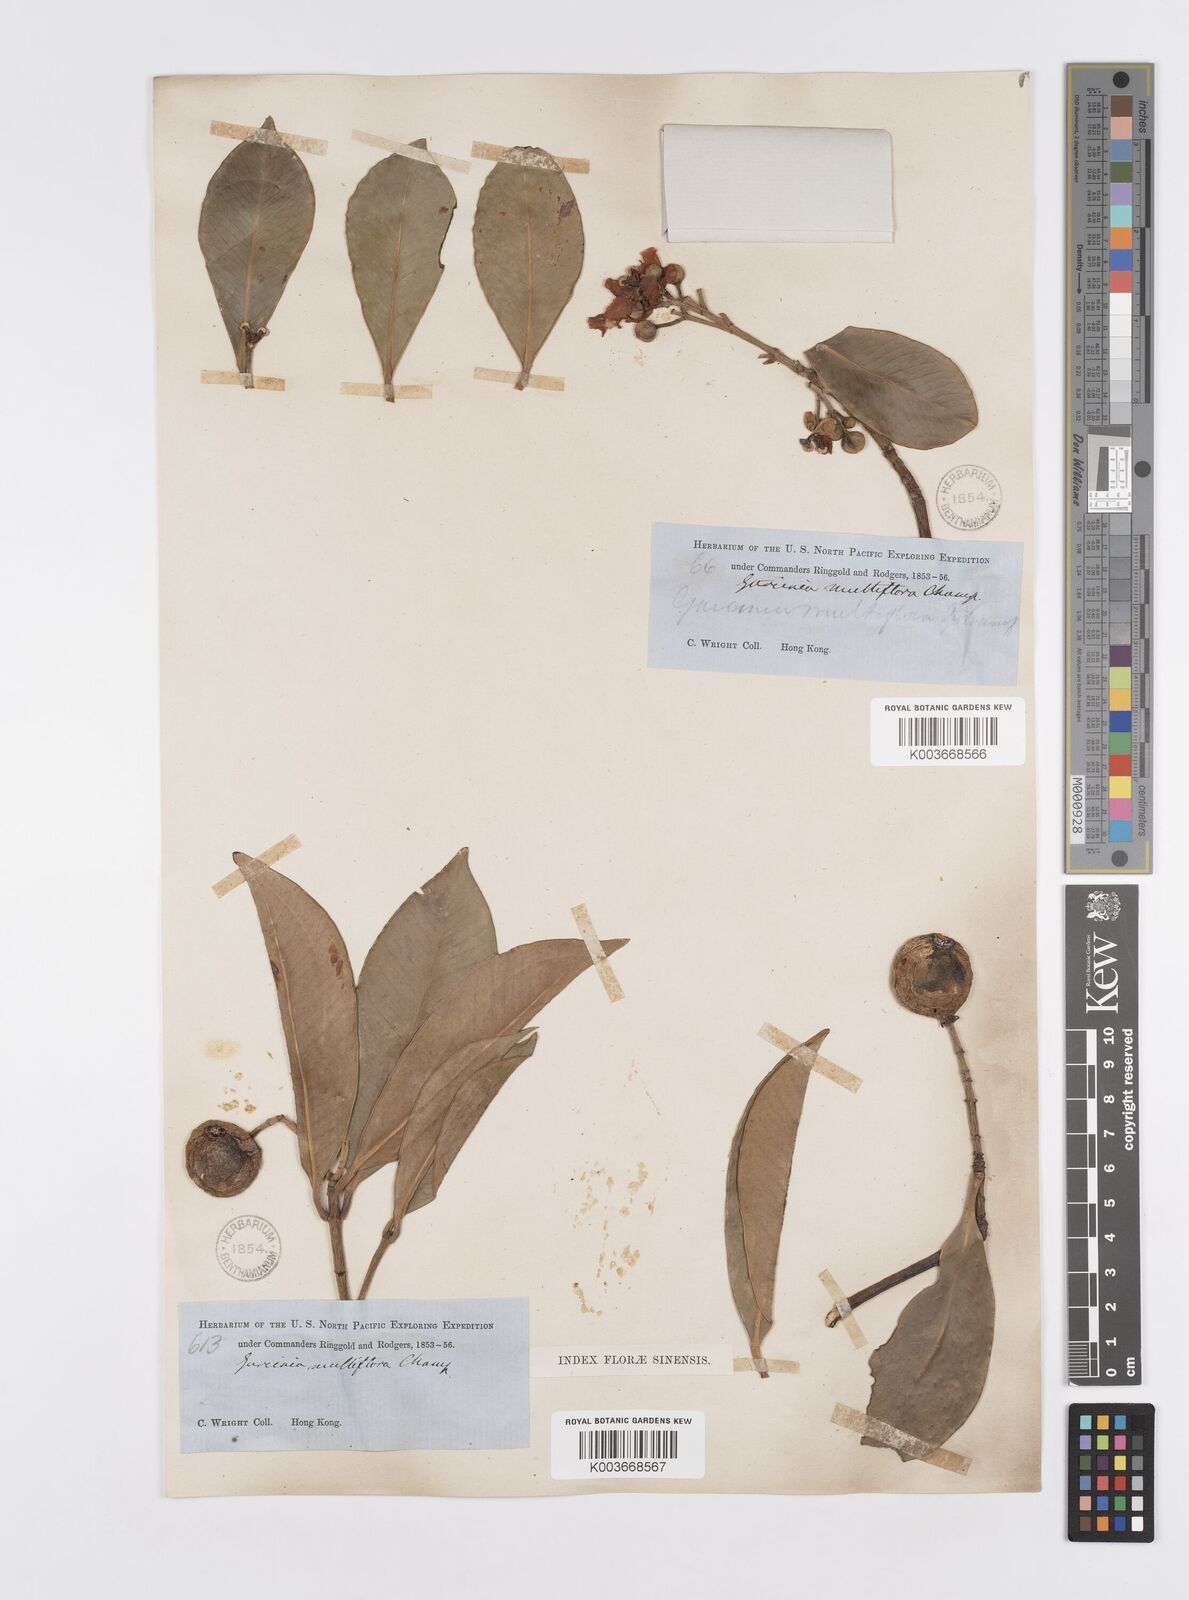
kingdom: Plantae
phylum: Tracheophyta
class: Magnoliopsida
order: Malpighiales
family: Clusiaceae
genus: Garcinia
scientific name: Garcinia multiflora
